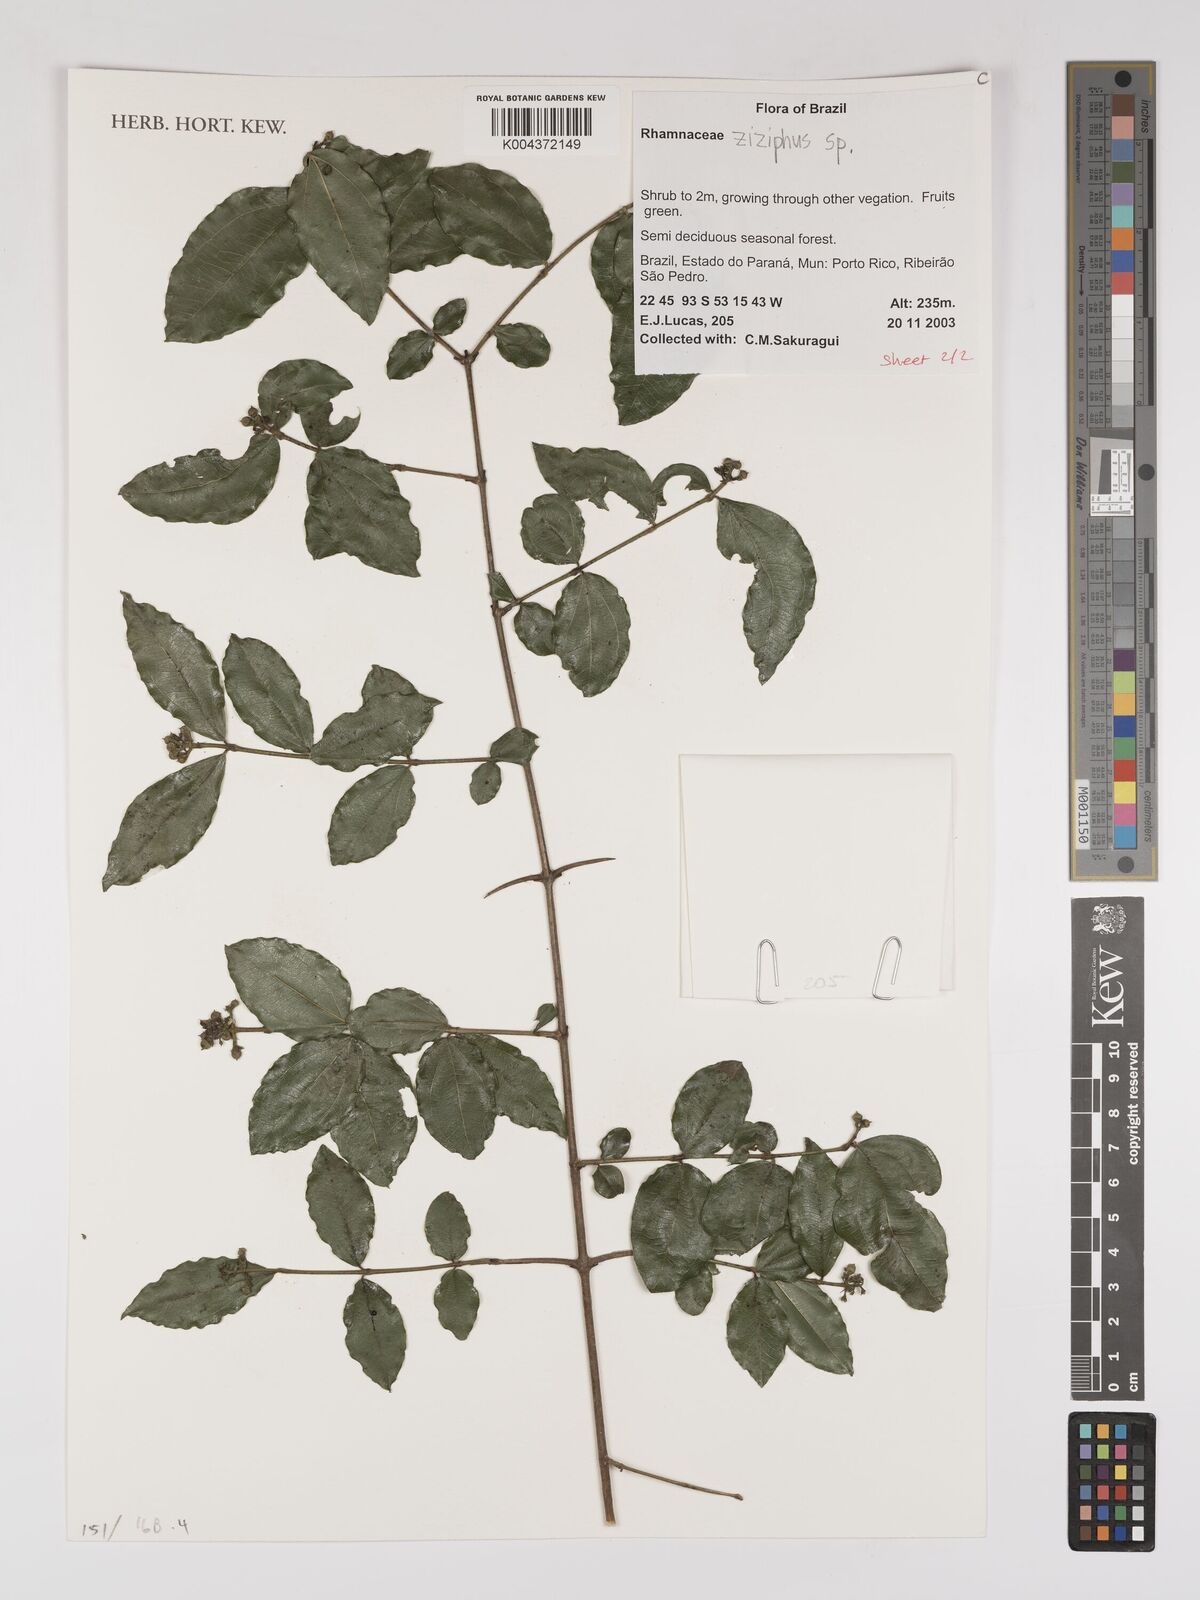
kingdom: Plantae
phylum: Tracheophyta
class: Magnoliopsida
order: Rosales
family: Rhamnaceae
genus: Ziziphus
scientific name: Ziziphus
